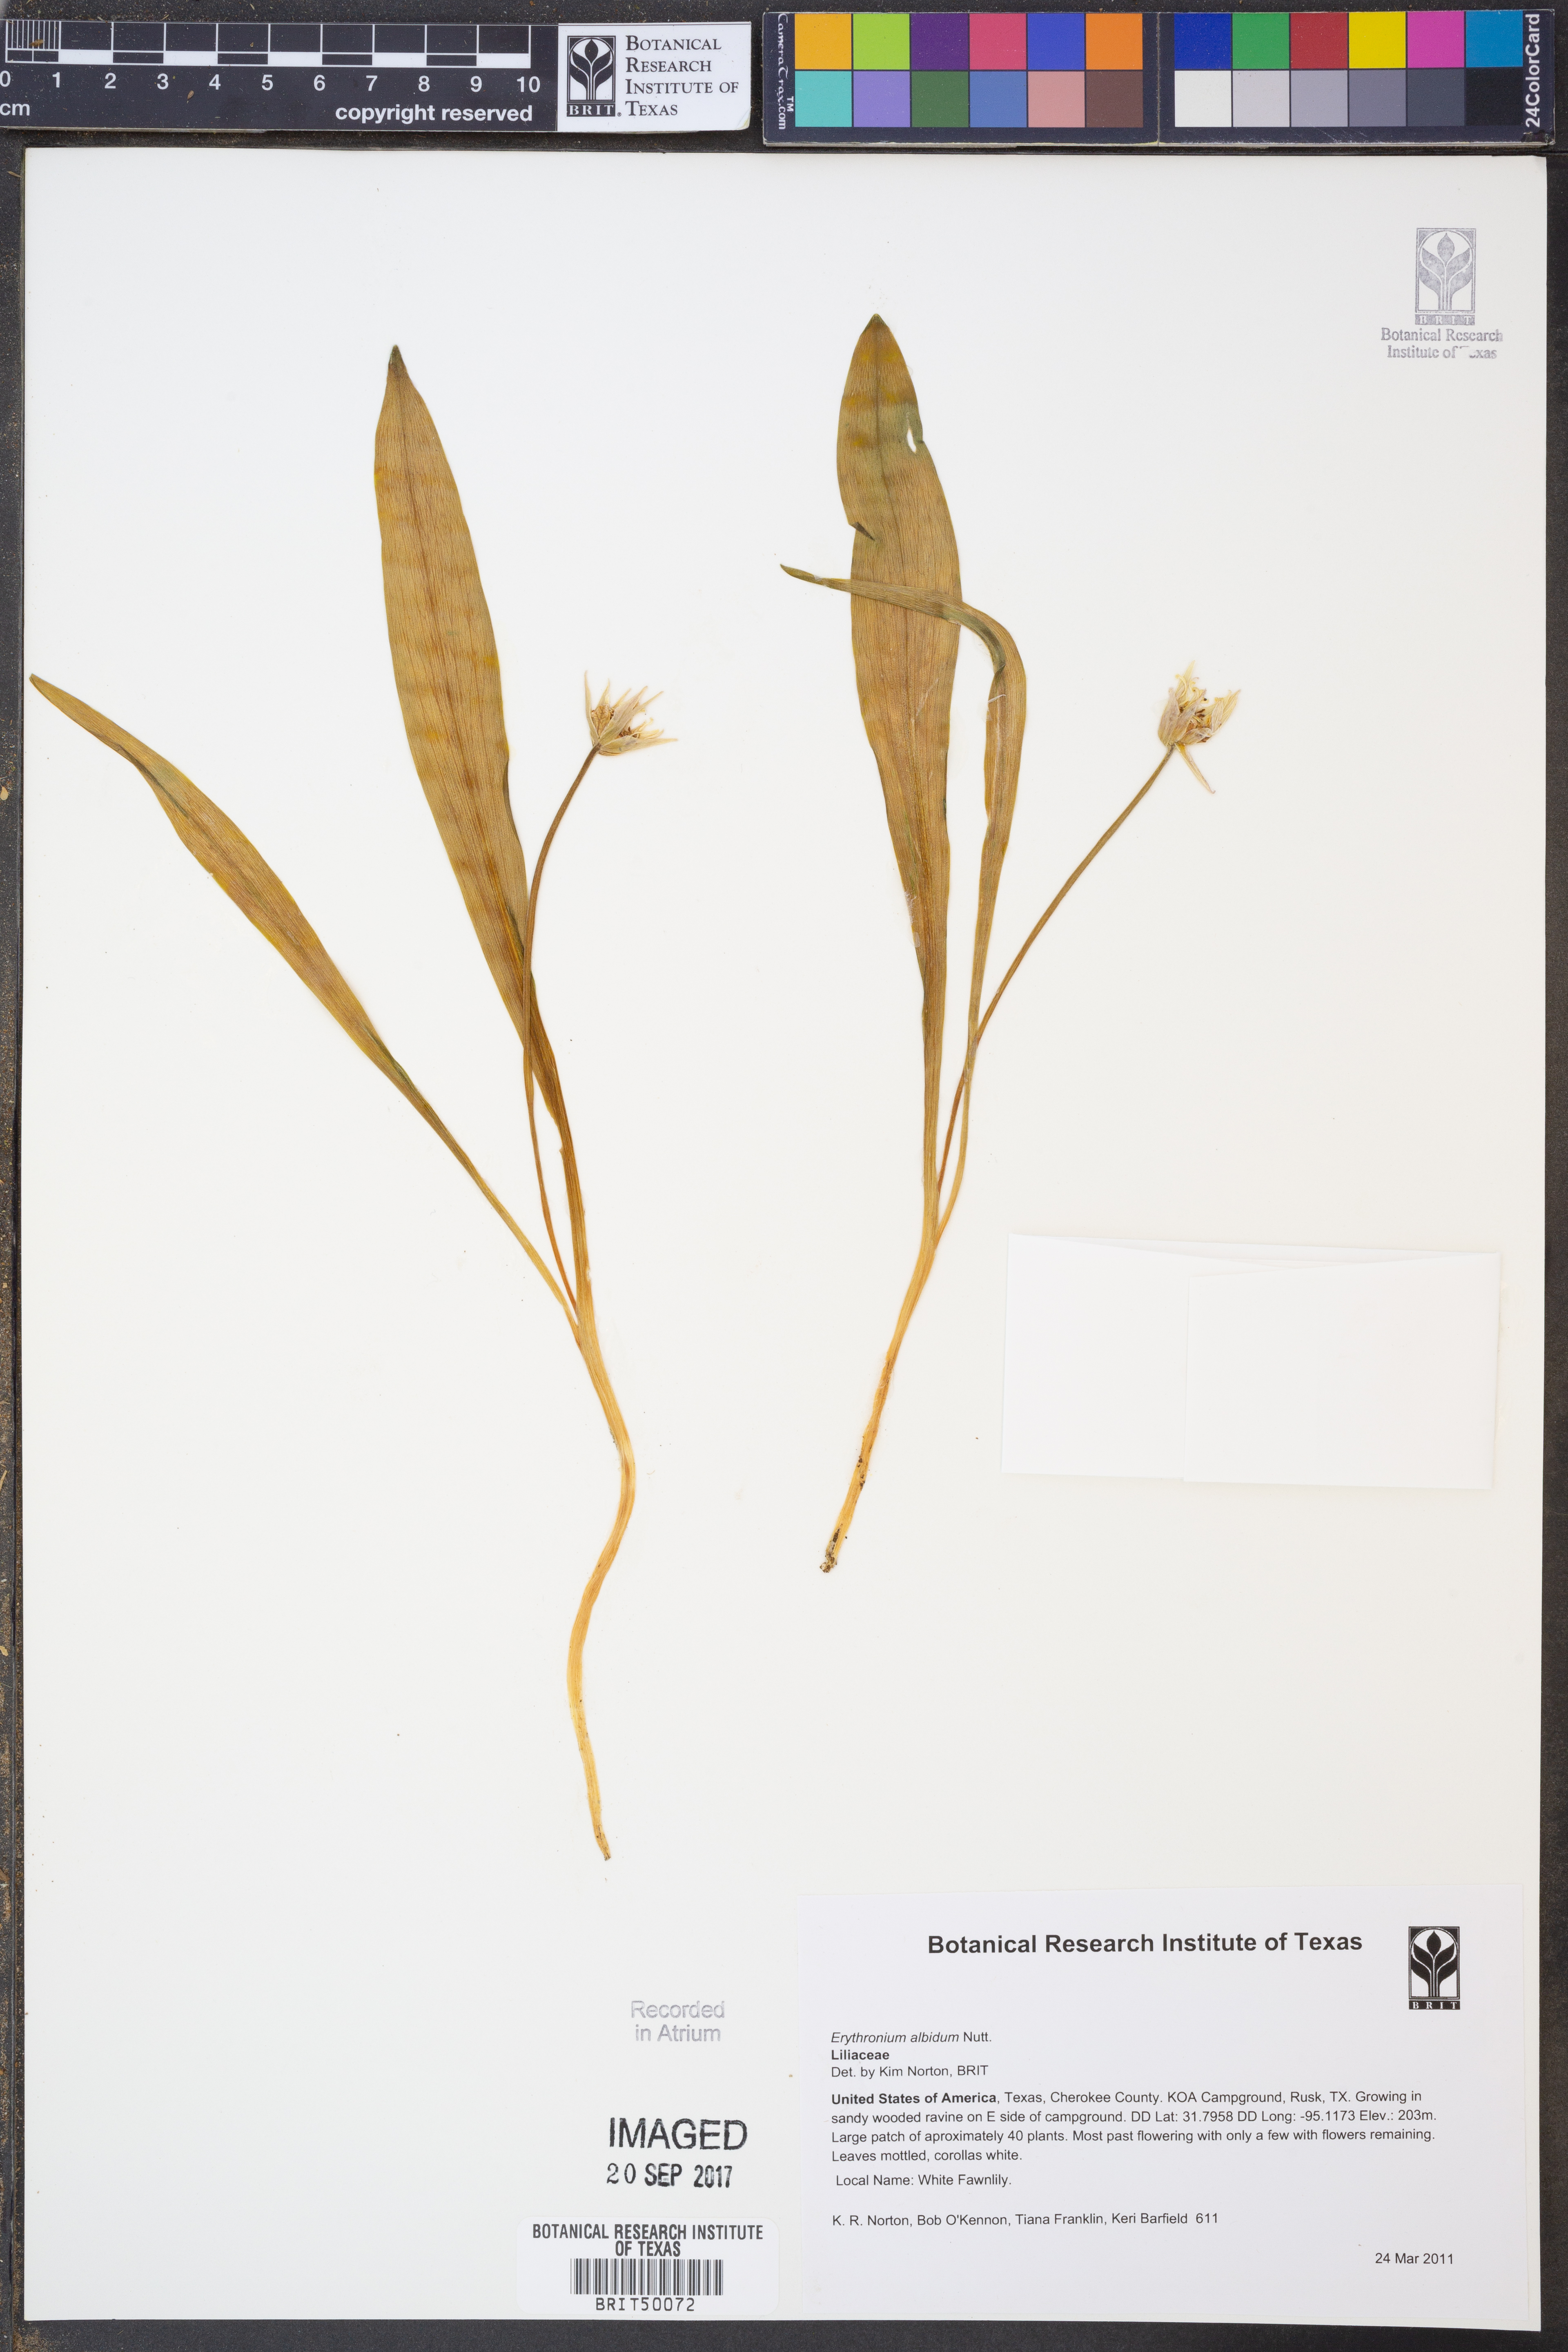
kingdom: Plantae
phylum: Tracheophyta
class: Liliopsida
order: Liliales
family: Liliaceae
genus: Erythronium
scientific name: Erythronium albidum
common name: White trout-lily
